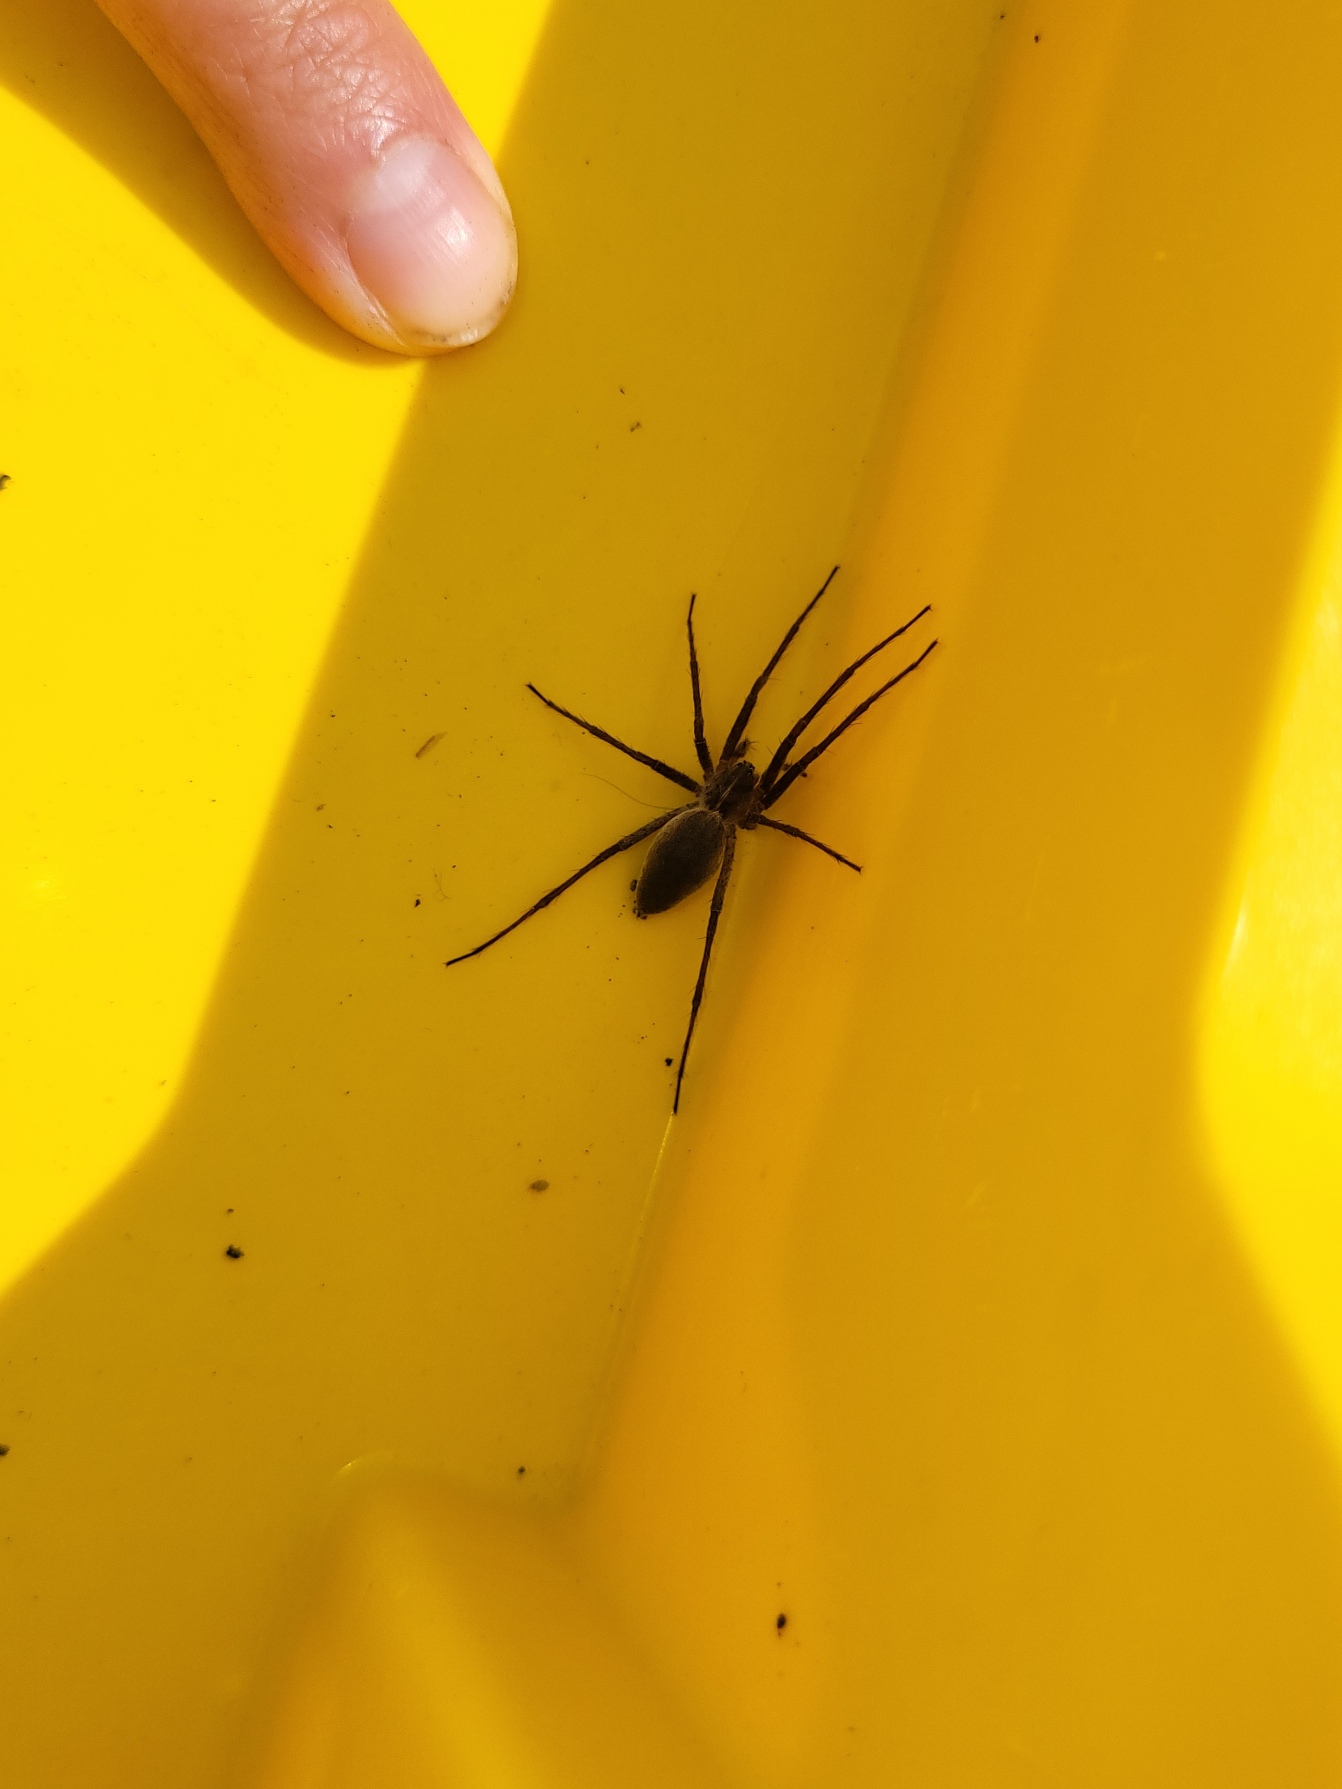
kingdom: Animalia
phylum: Arthropoda
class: Arachnida
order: Araneae
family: Pisauridae
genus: Pisaura
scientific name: Pisaura mirabilis
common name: Almindelig rovedderkop
